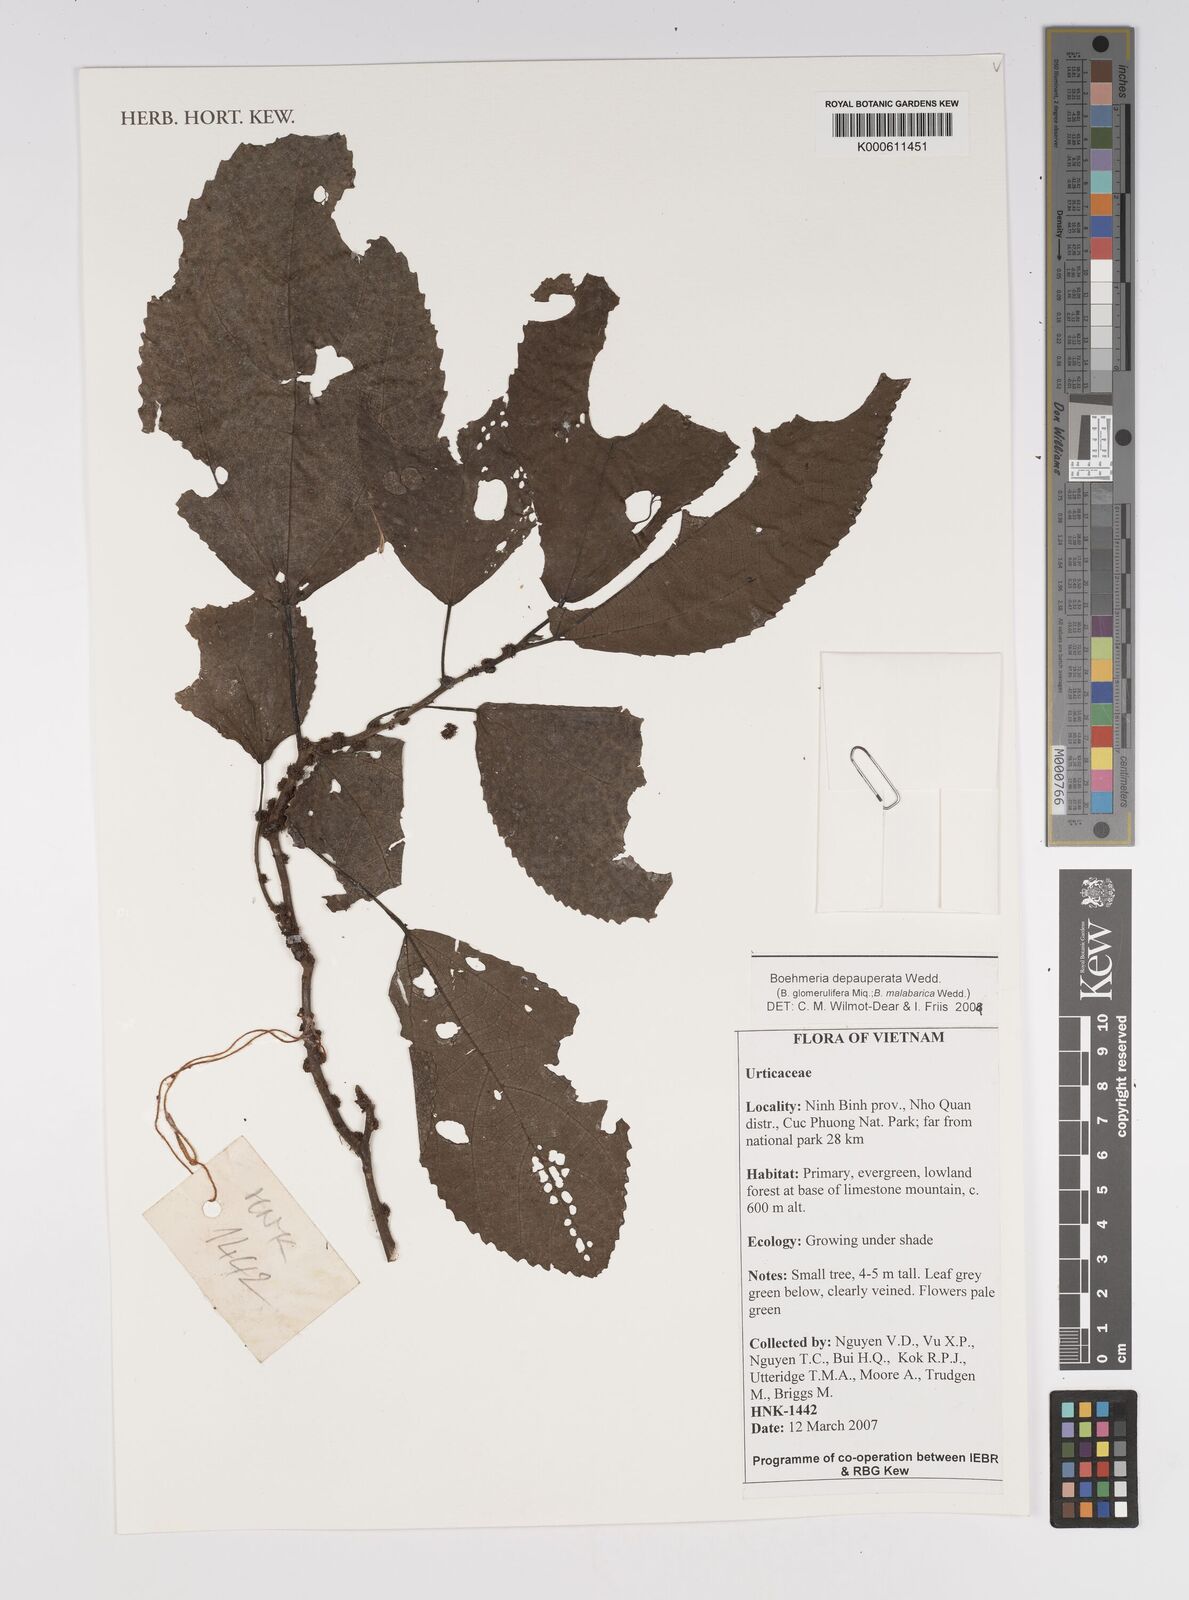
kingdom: Plantae
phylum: Tracheophyta
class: Magnoliopsida
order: Rosales
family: Urticaceae
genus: Boehmeria
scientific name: Boehmeria depauperata
